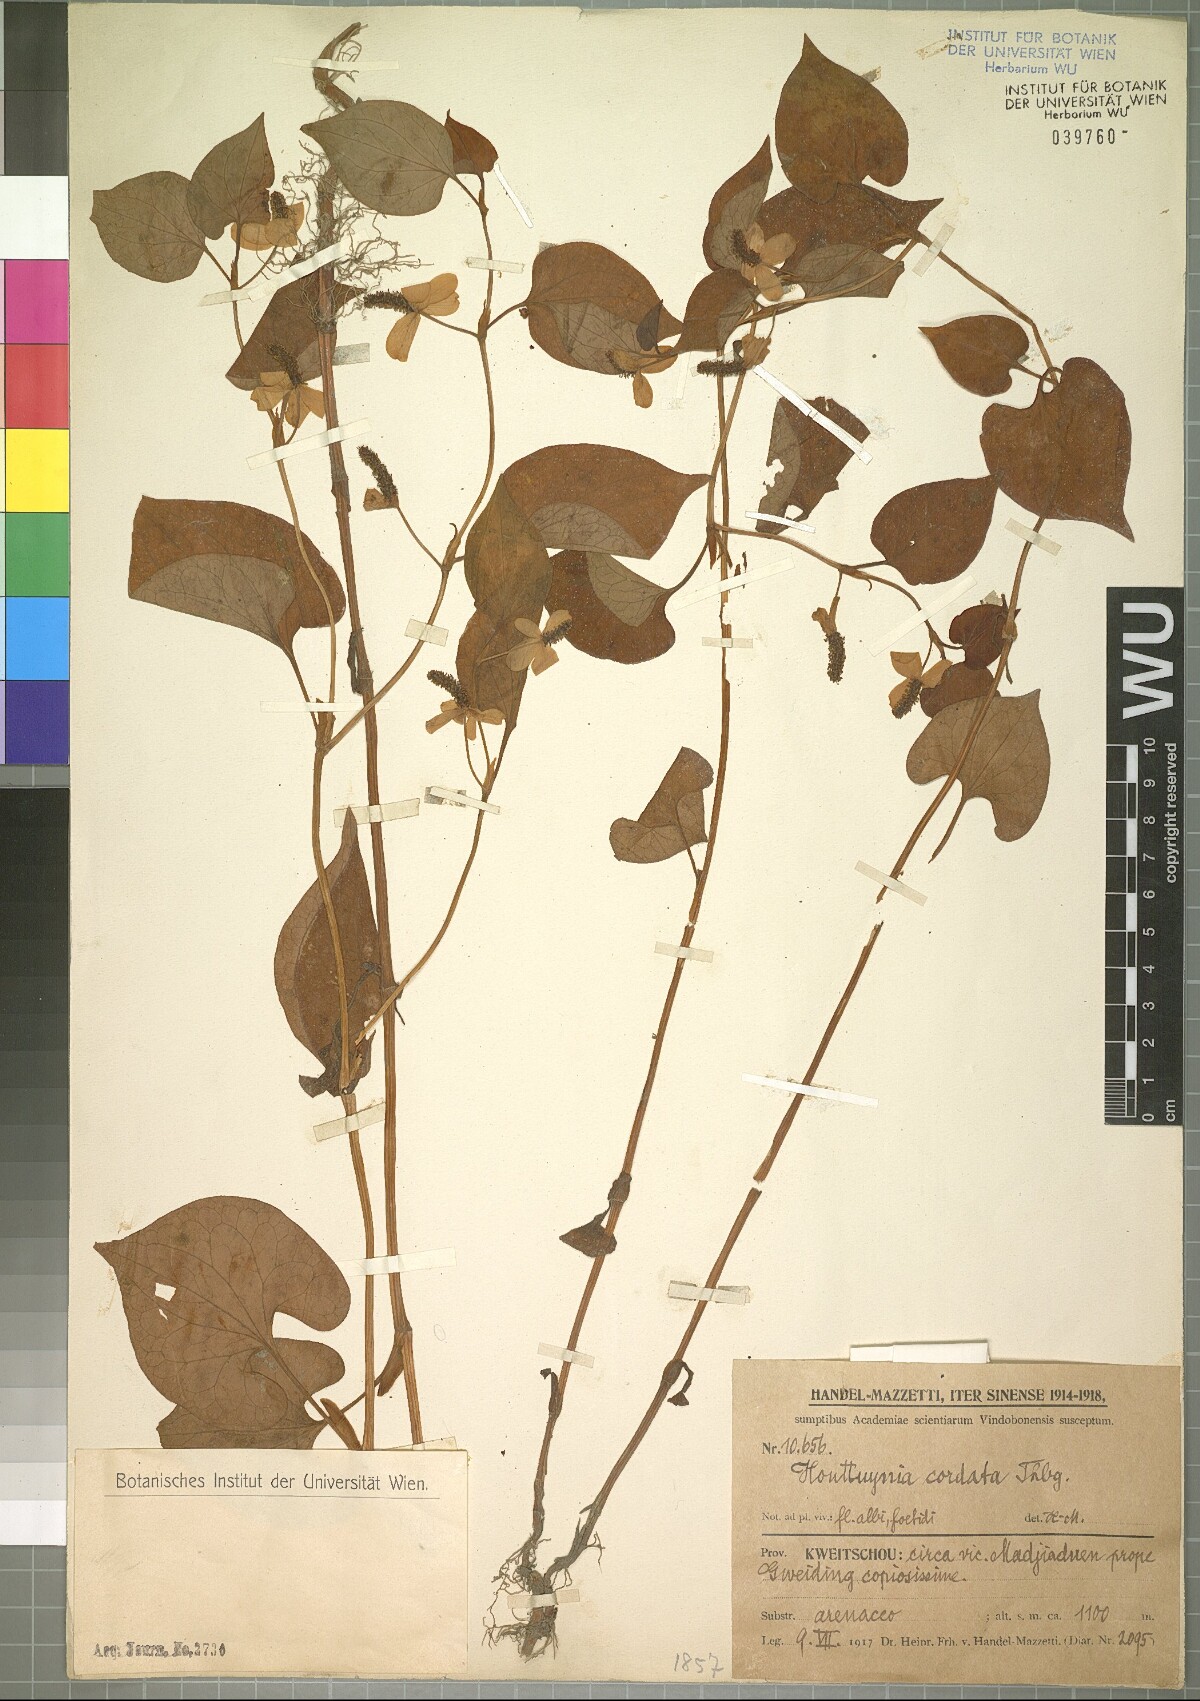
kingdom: Plantae
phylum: Tracheophyta
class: Magnoliopsida
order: Piperales
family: Saururaceae
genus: Houttuynia
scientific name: Houttuynia cordata
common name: Chameleon
